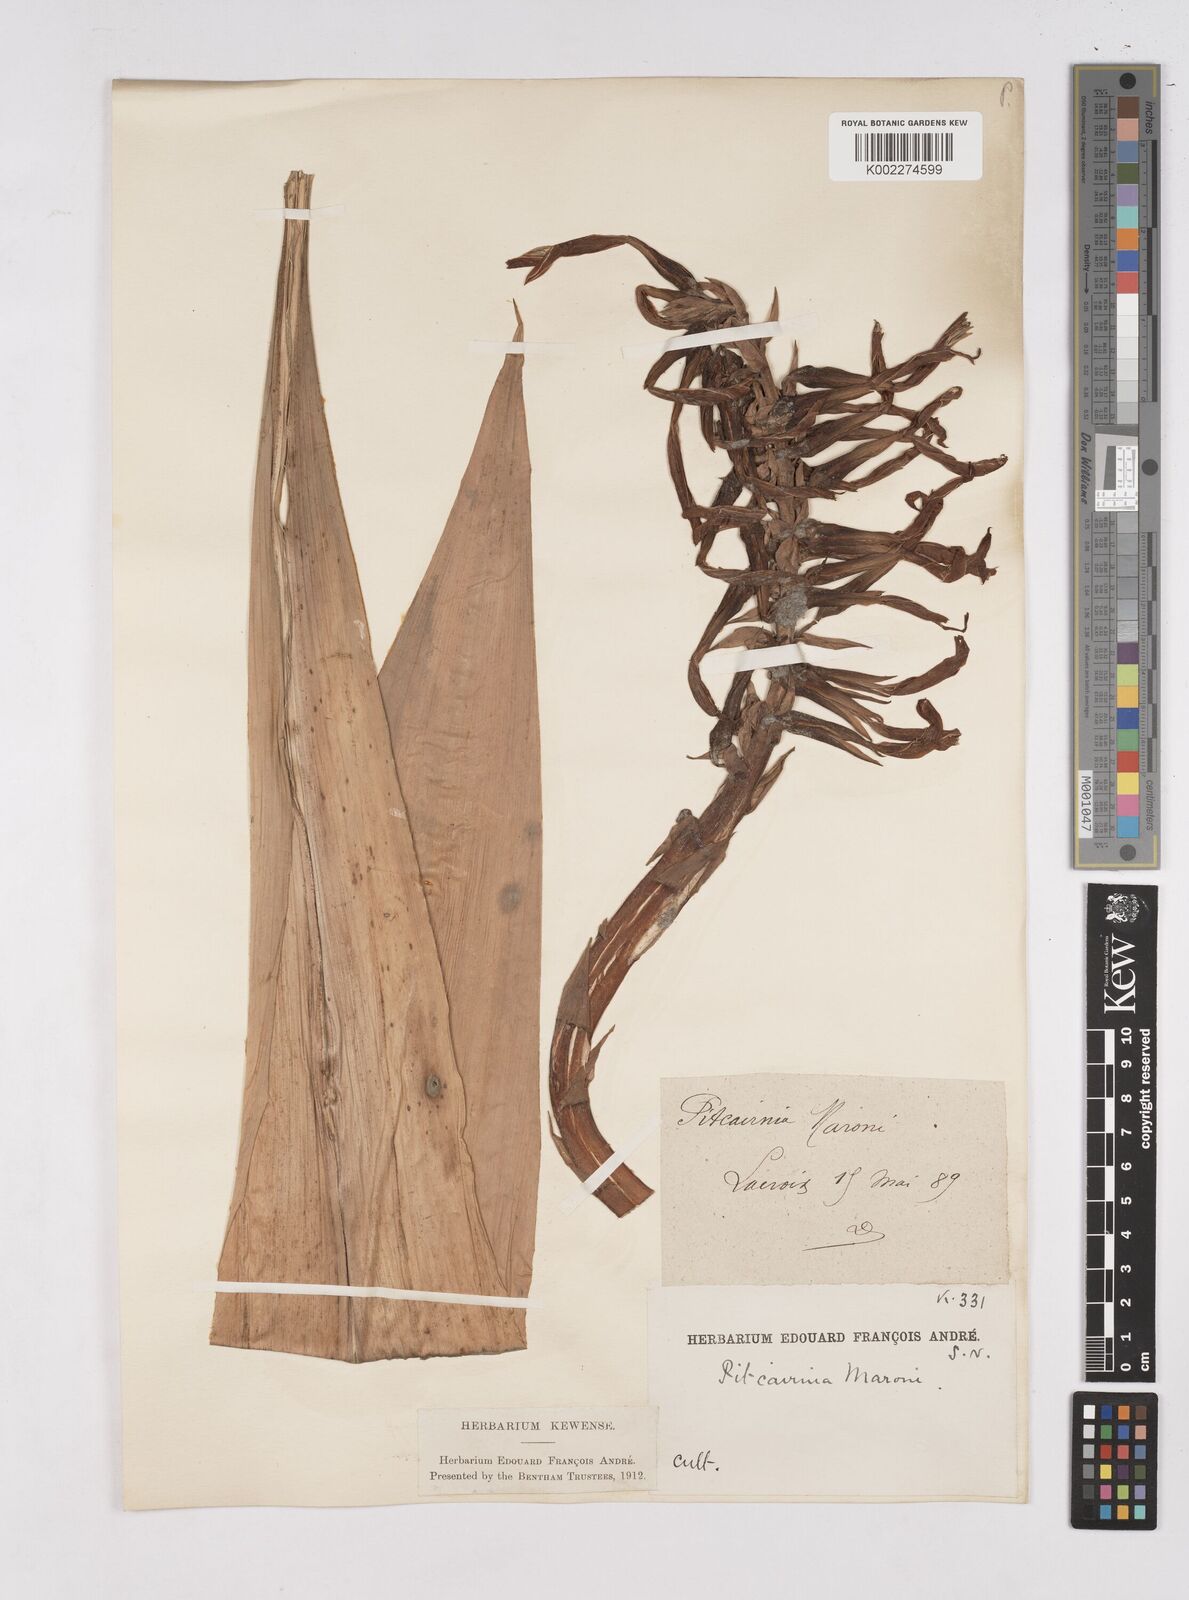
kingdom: Plantae
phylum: Tracheophyta
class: Liliopsida
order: Poales
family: Bromeliaceae
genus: Pitcairnia
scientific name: Pitcairnia maroni
